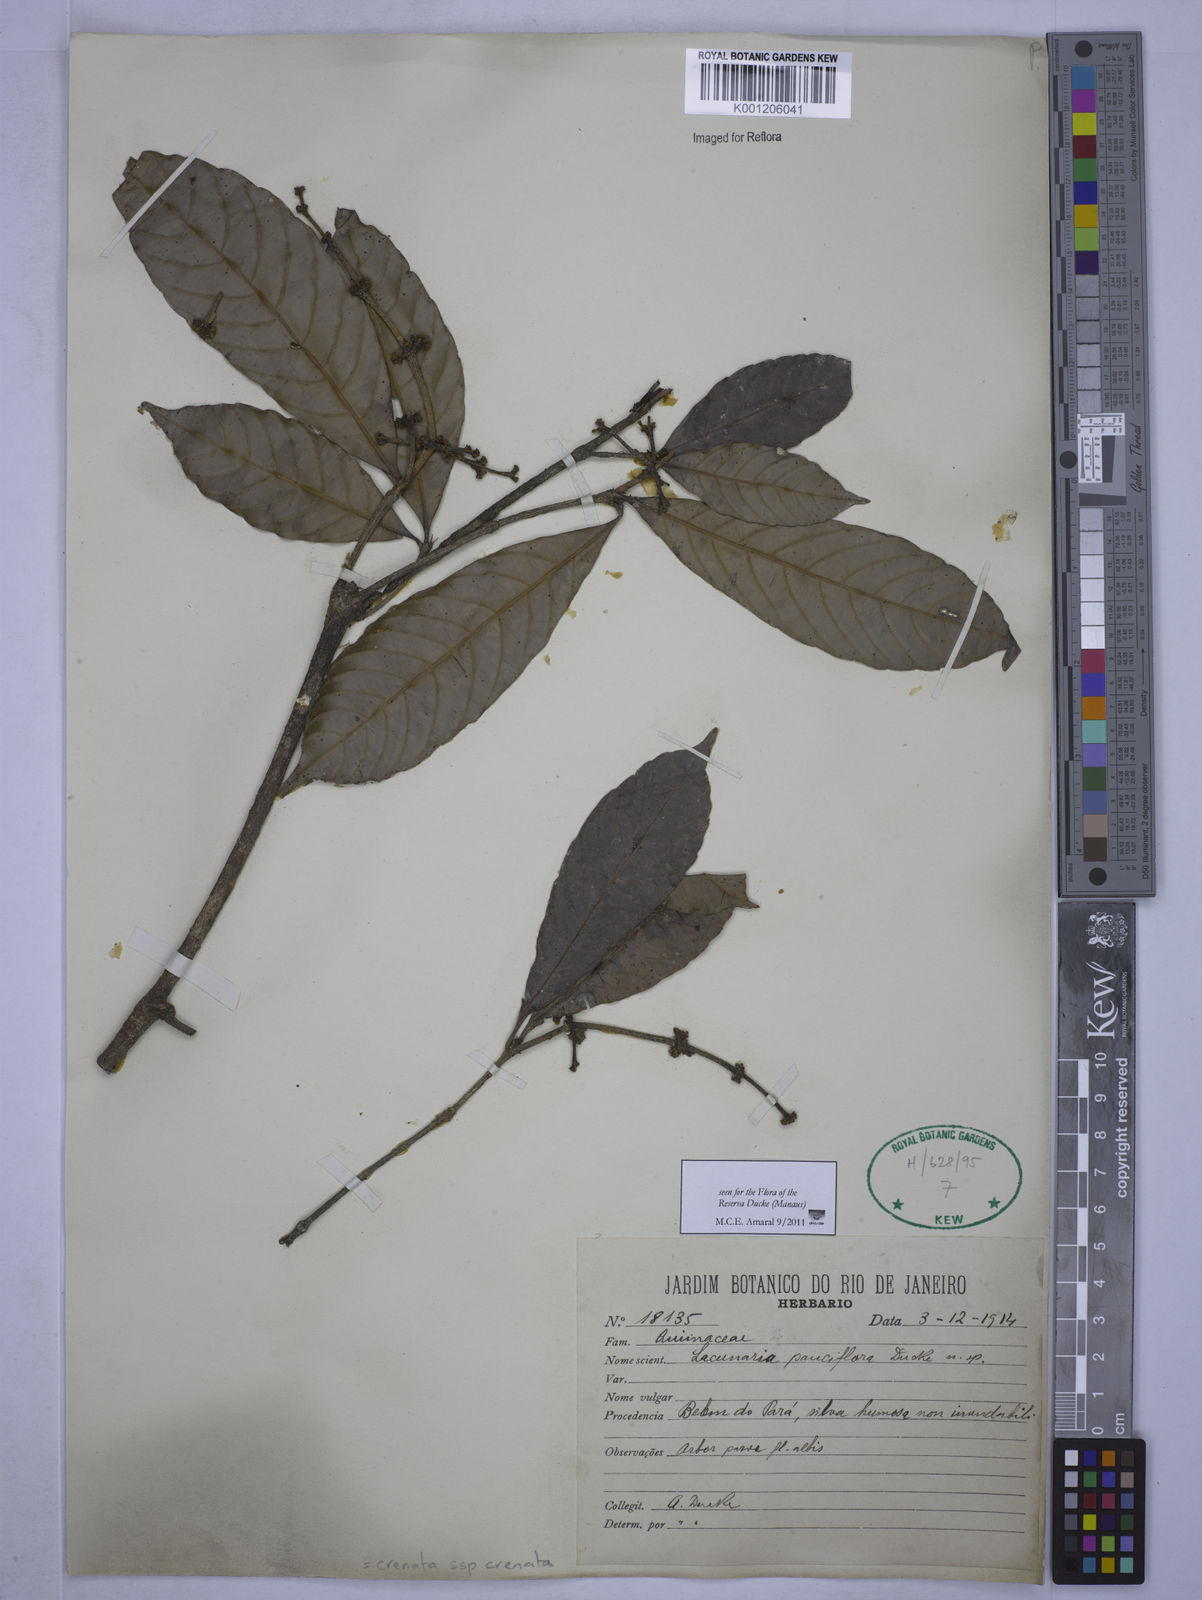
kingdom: Plantae
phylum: Tracheophyta
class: Magnoliopsida
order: Malpighiales
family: Quiinaceae
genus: Lacunaria
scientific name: Lacunaria crenata
